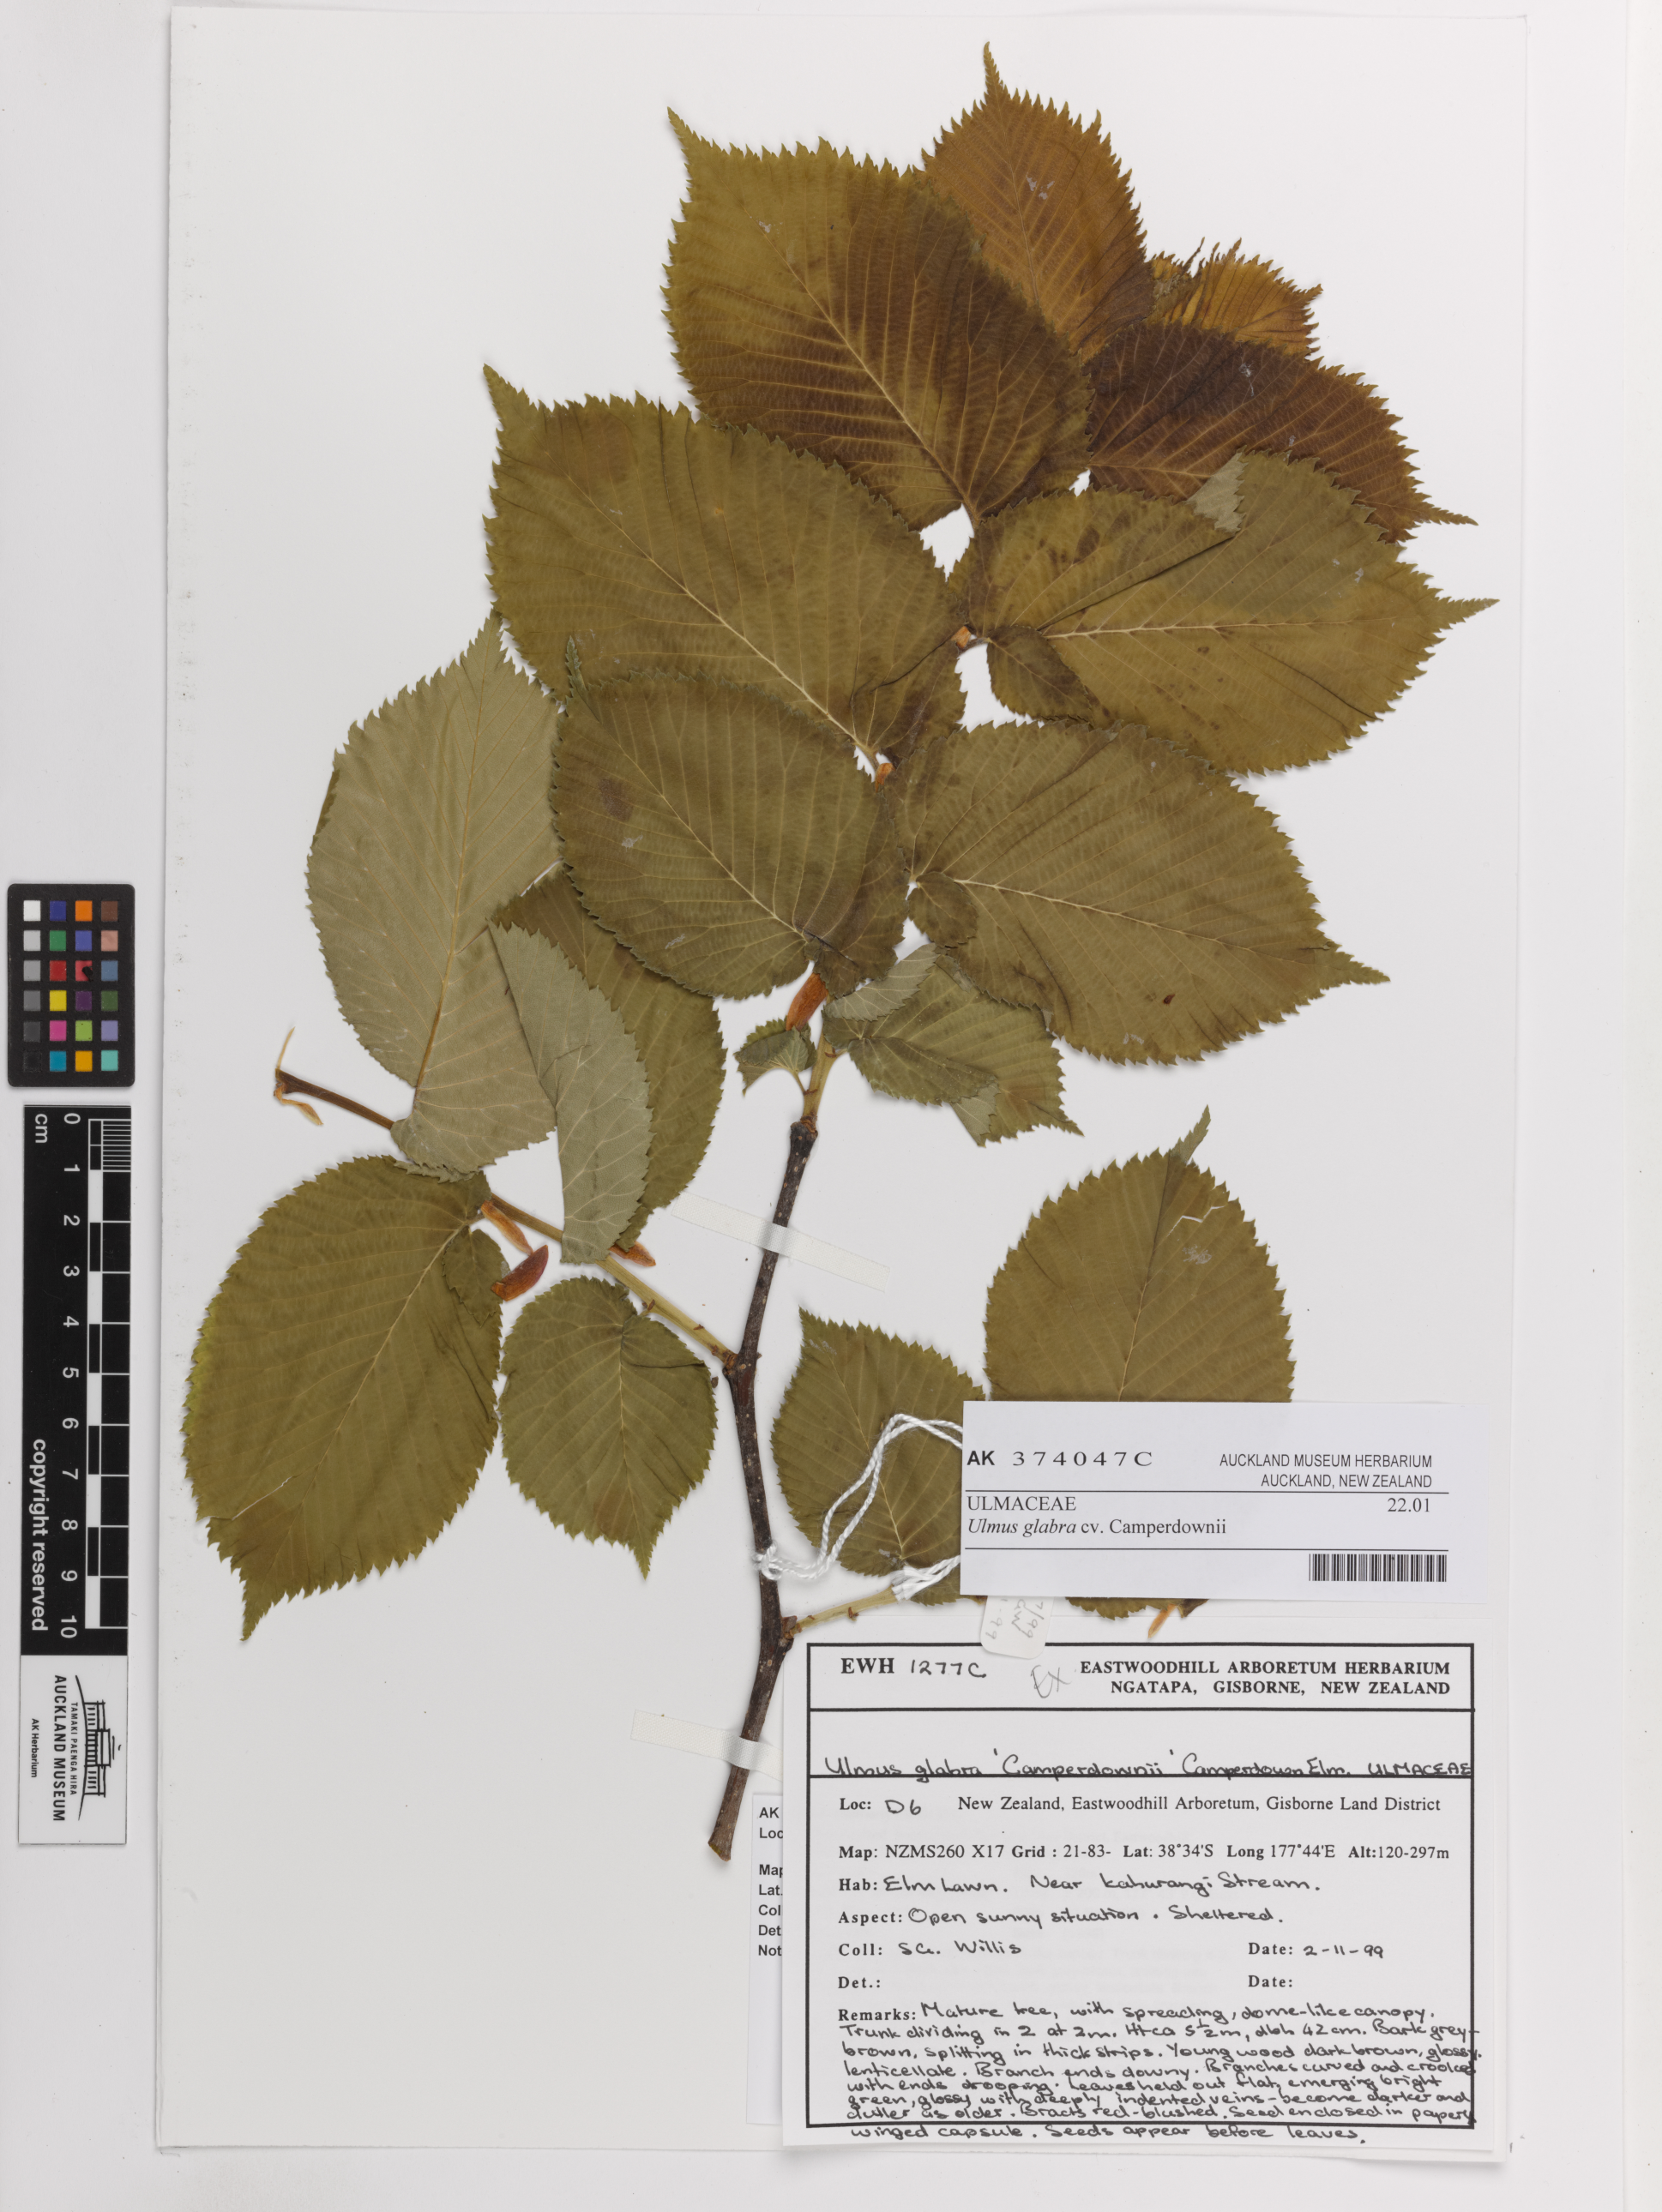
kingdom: Plantae
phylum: Tracheophyta
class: Magnoliopsida
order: Rosales
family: Ulmaceae
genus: Ulmus
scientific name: Ulmus glabra
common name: Wych elm
